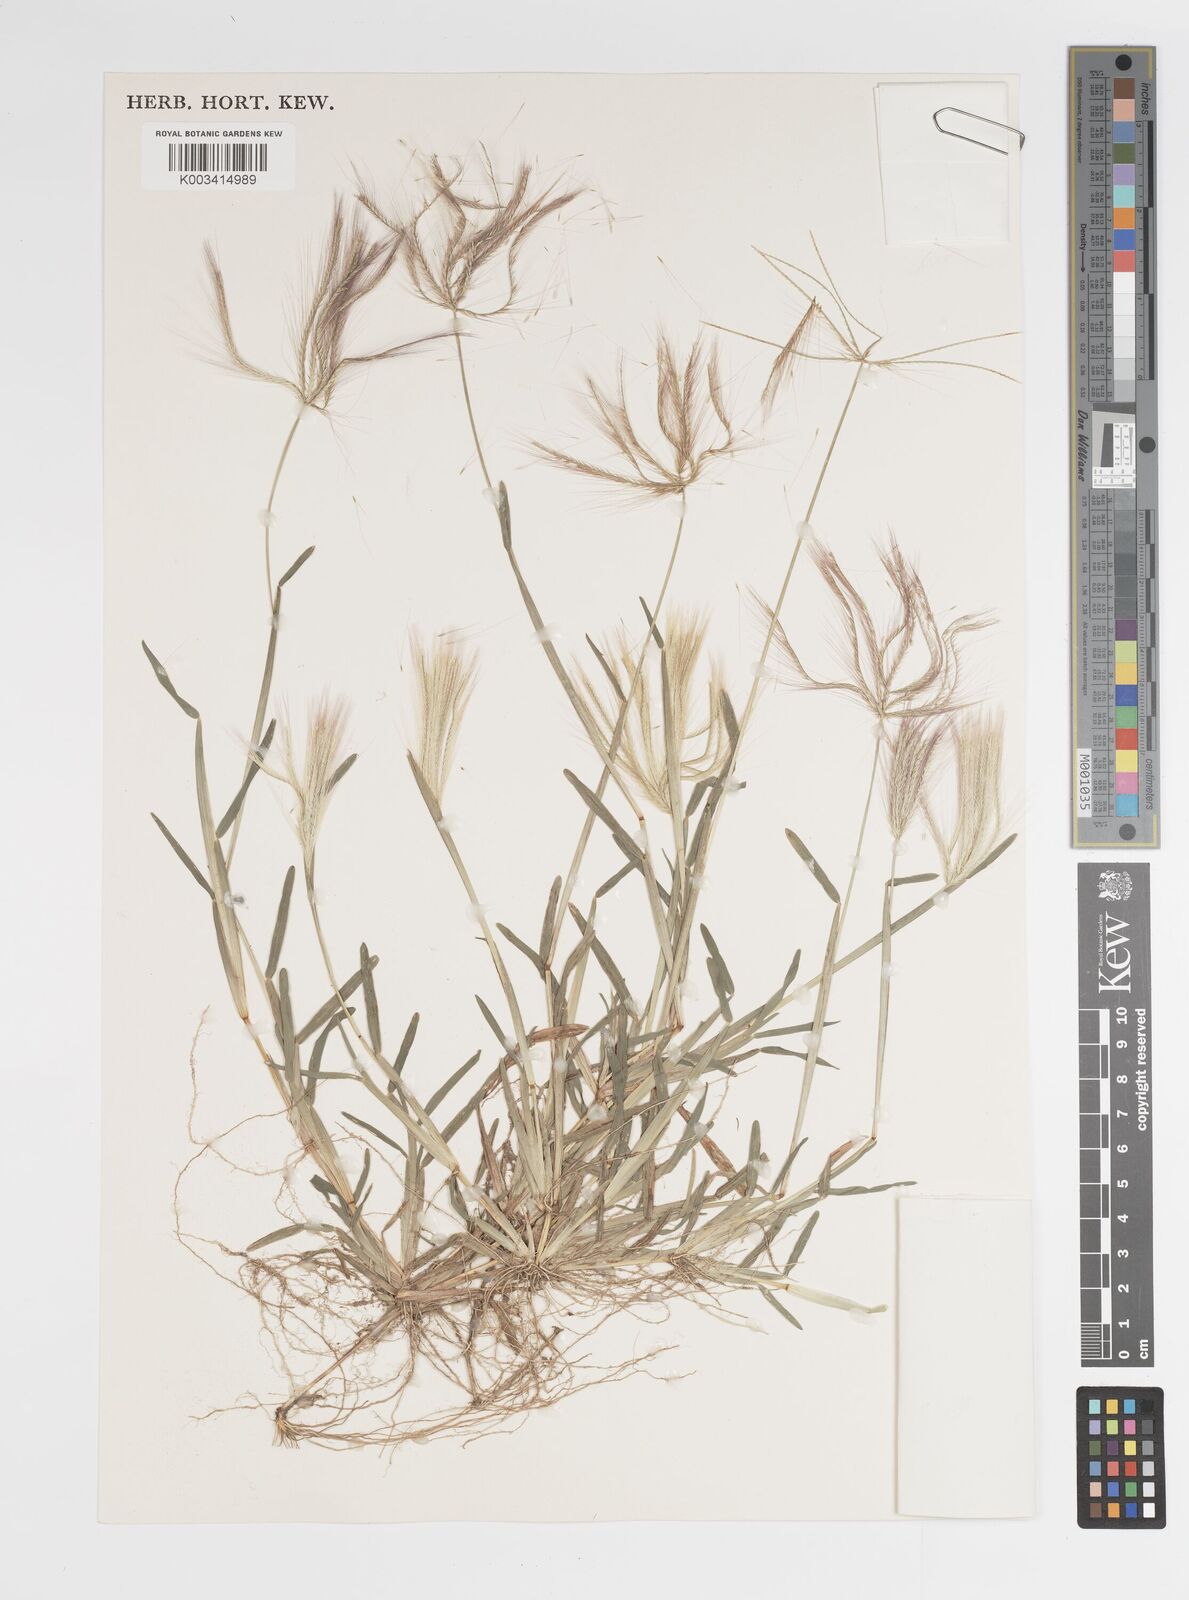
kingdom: Plantae
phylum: Tracheophyta
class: Liliopsida
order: Poales
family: Poaceae
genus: Chloris
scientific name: Chloris pycnothrix
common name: Spiderweb chloris
